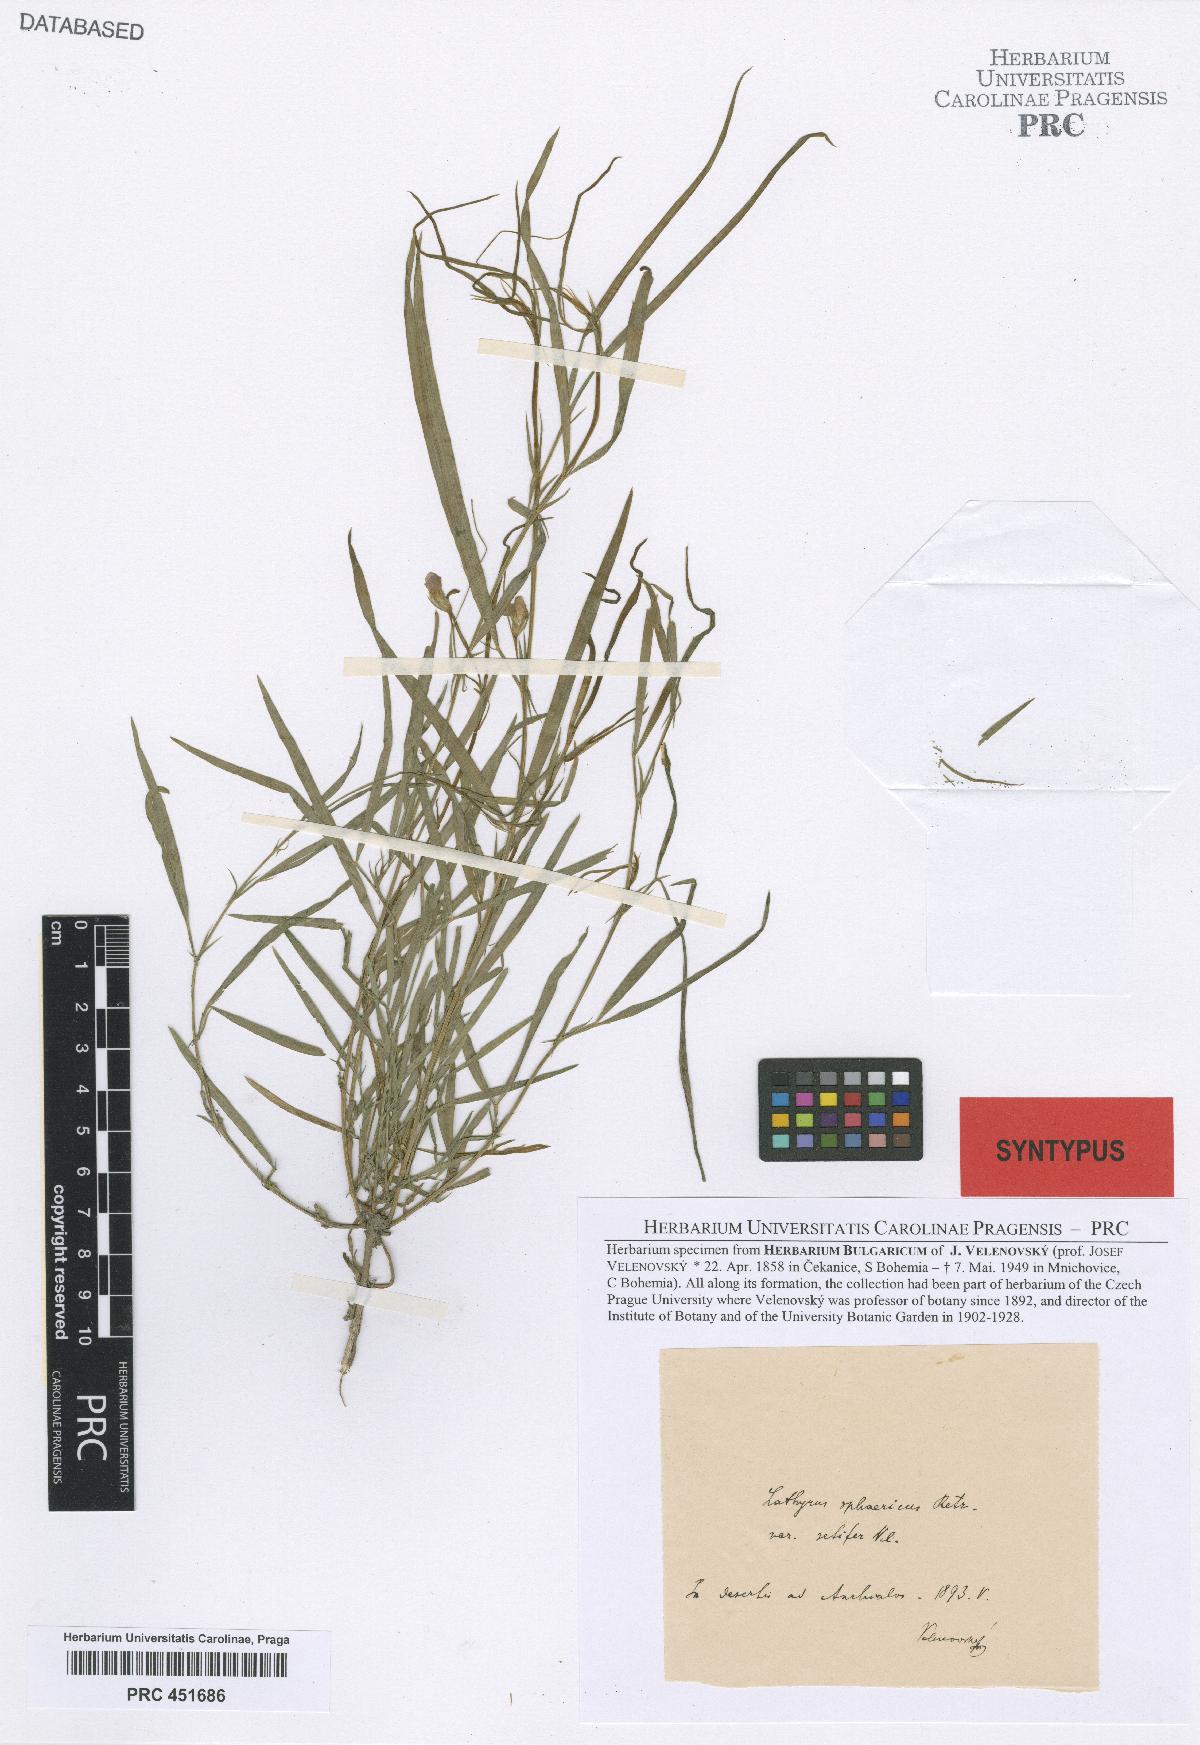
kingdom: Plantae
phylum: Tracheophyta
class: Magnoliopsida
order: Fabales
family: Fabaceae
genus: Lathyrus
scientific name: Lathyrus sphaericus
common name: Grass pea
